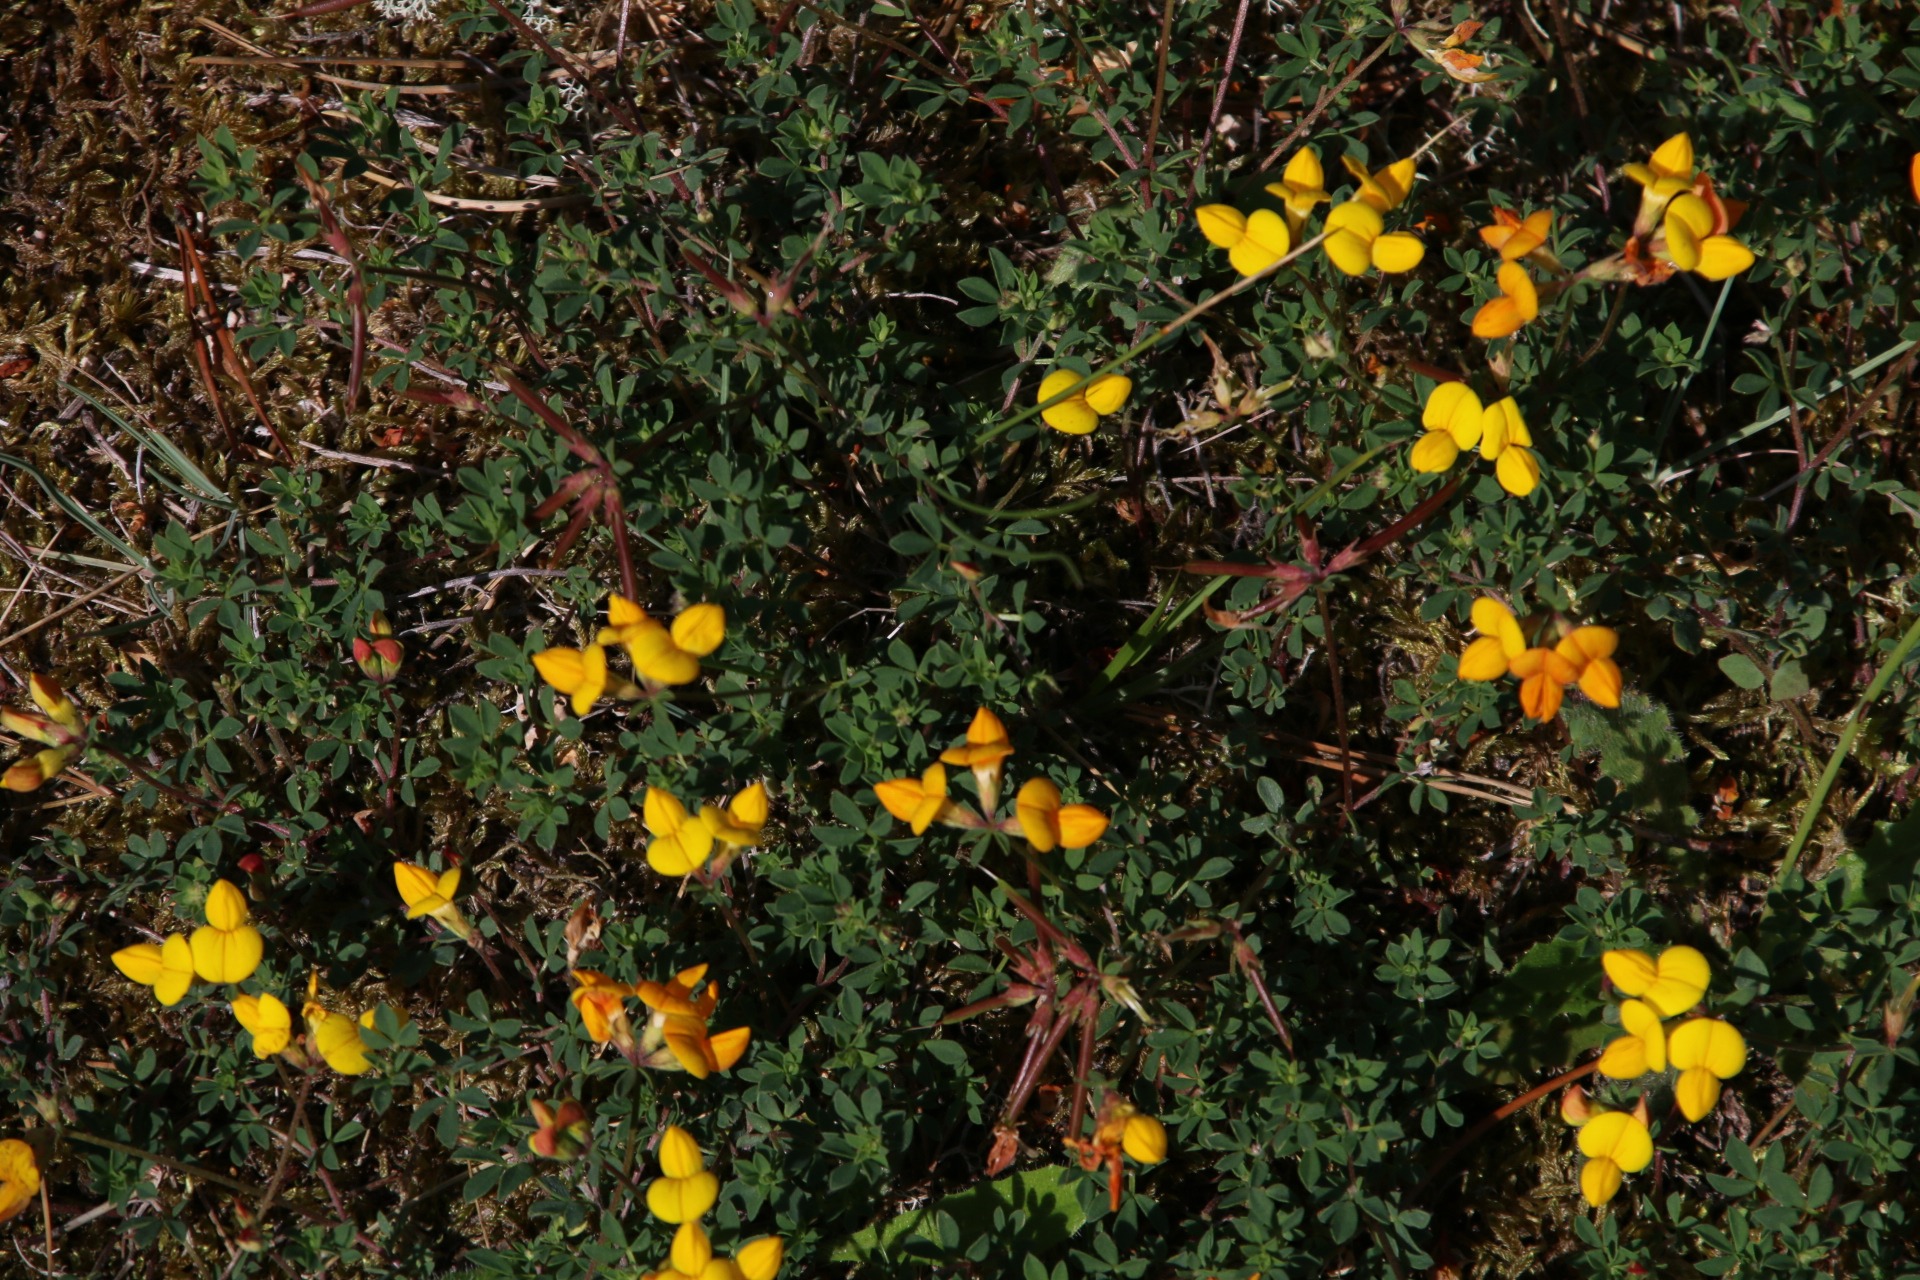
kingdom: Plantae
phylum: Tracheophyta
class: Magnoliopsida
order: Fabales
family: Fabaceae
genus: Lotus
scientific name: Lotus corniculatus
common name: Almindelig kællingetand
